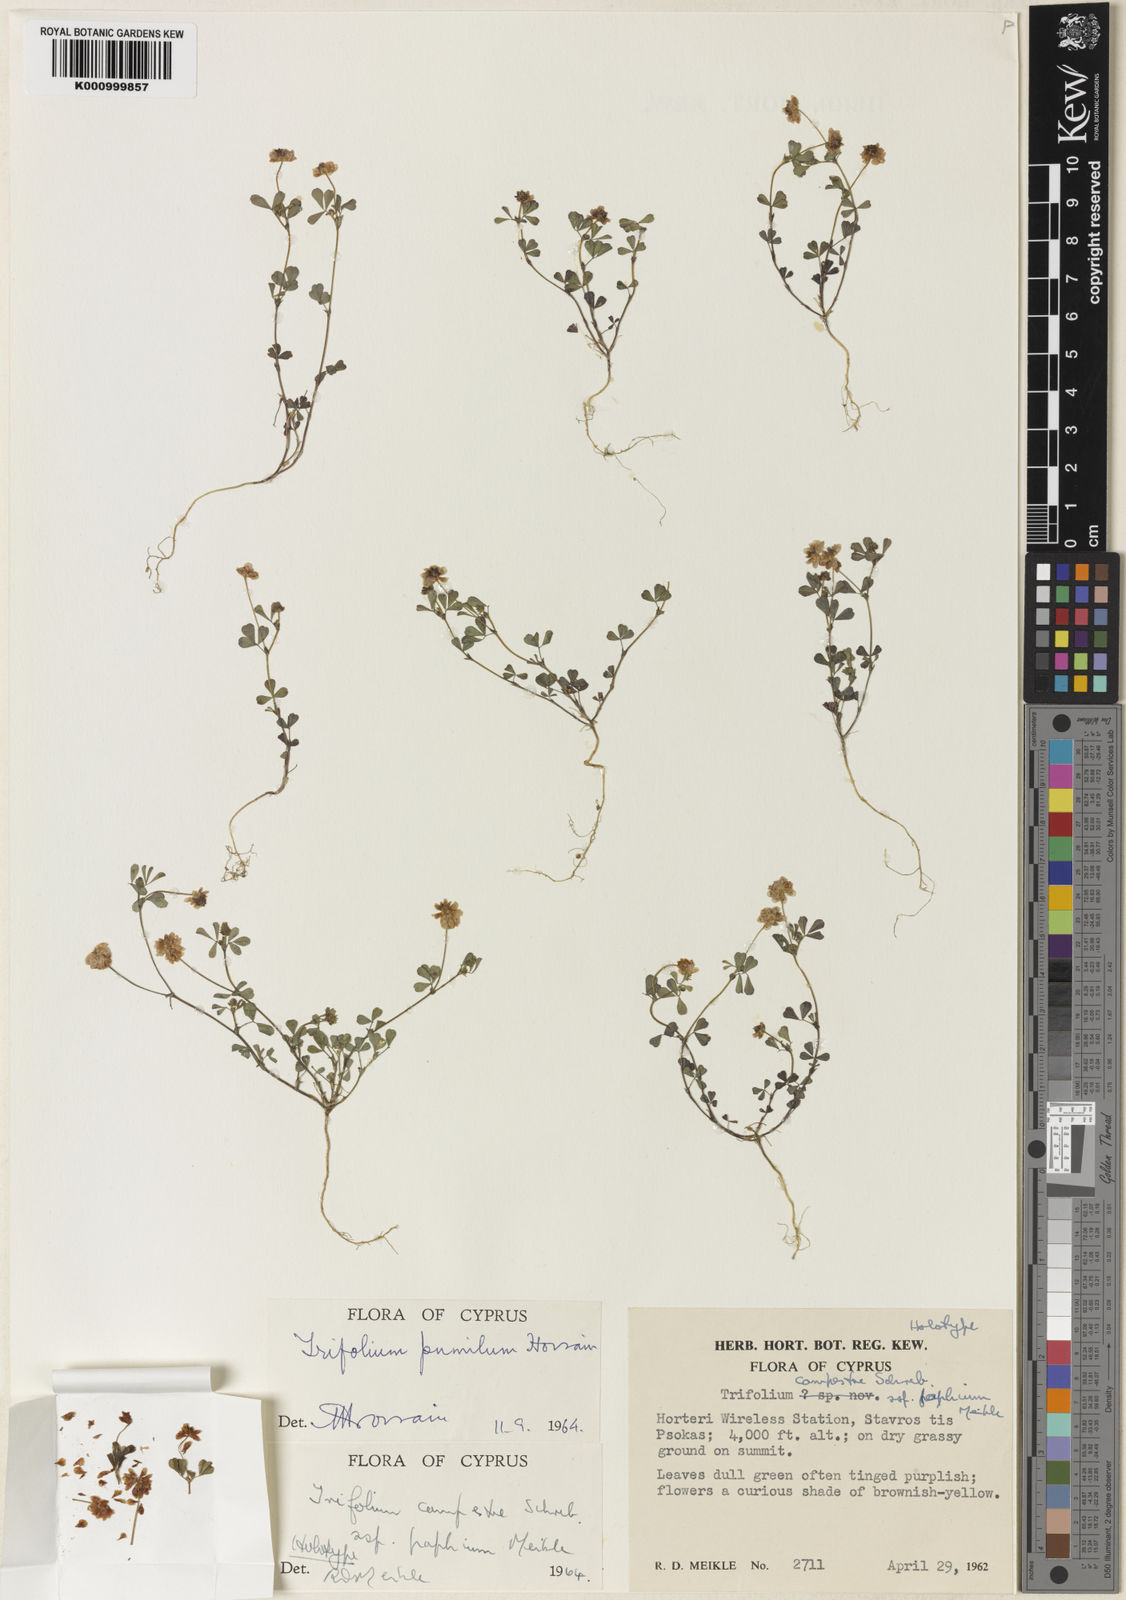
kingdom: Plantae
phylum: Tracheophyta
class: Magnoliopsida
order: Fabales
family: Fabaceae
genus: Trifolium
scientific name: Trifolium campestre
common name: Field clover
